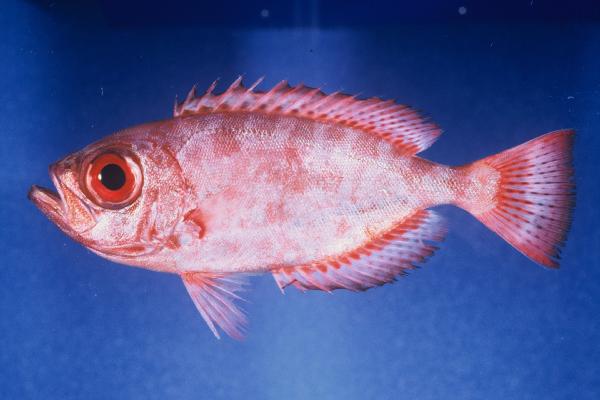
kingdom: Animalia
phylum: Chordata
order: Perciformes
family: Priacanthidae
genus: Heteropriacanthus
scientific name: Heteropriacanthus cruentatus
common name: Glasseye
